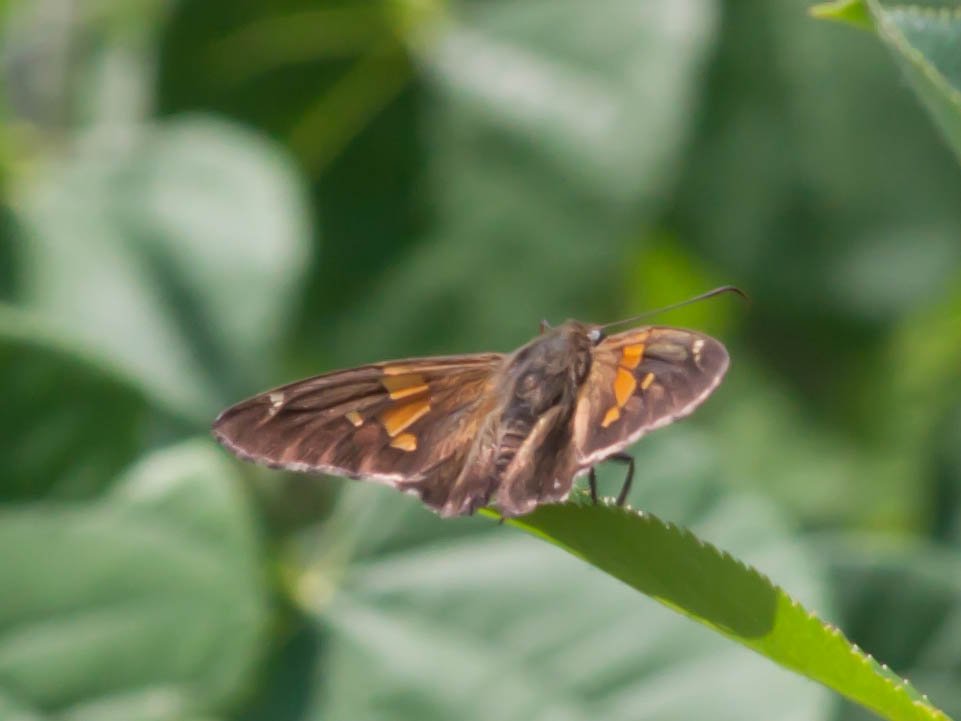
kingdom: Animalia
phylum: Arthropoda
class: Insecta
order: Lepidoptera
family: Hesperiidae
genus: Epargyreus
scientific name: Epargyreus clarus
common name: Silver-spotted Skipper
